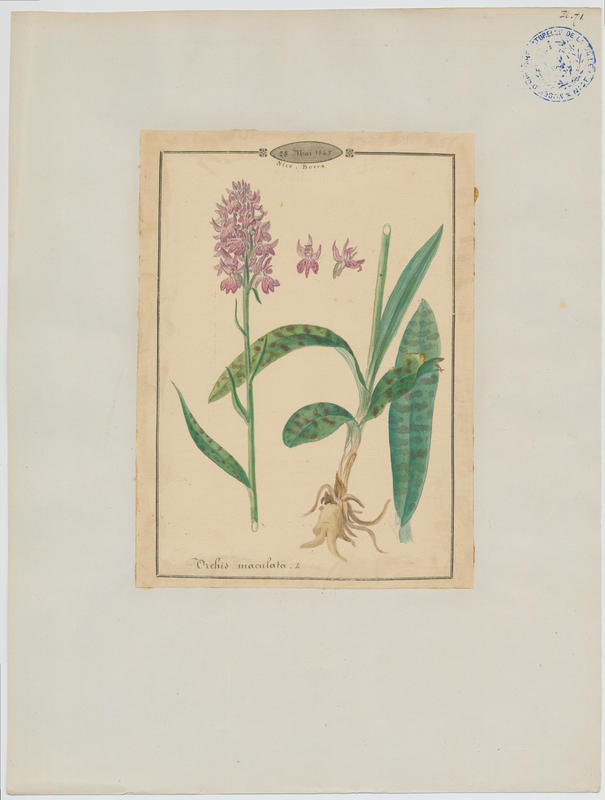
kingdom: Plantae
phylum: Tracheophyta
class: Liliopsida
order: Asparagales
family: Orchidaceae
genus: Dactylorhiza
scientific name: Dactylorhiza maculata
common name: Heath spotted-orchid
